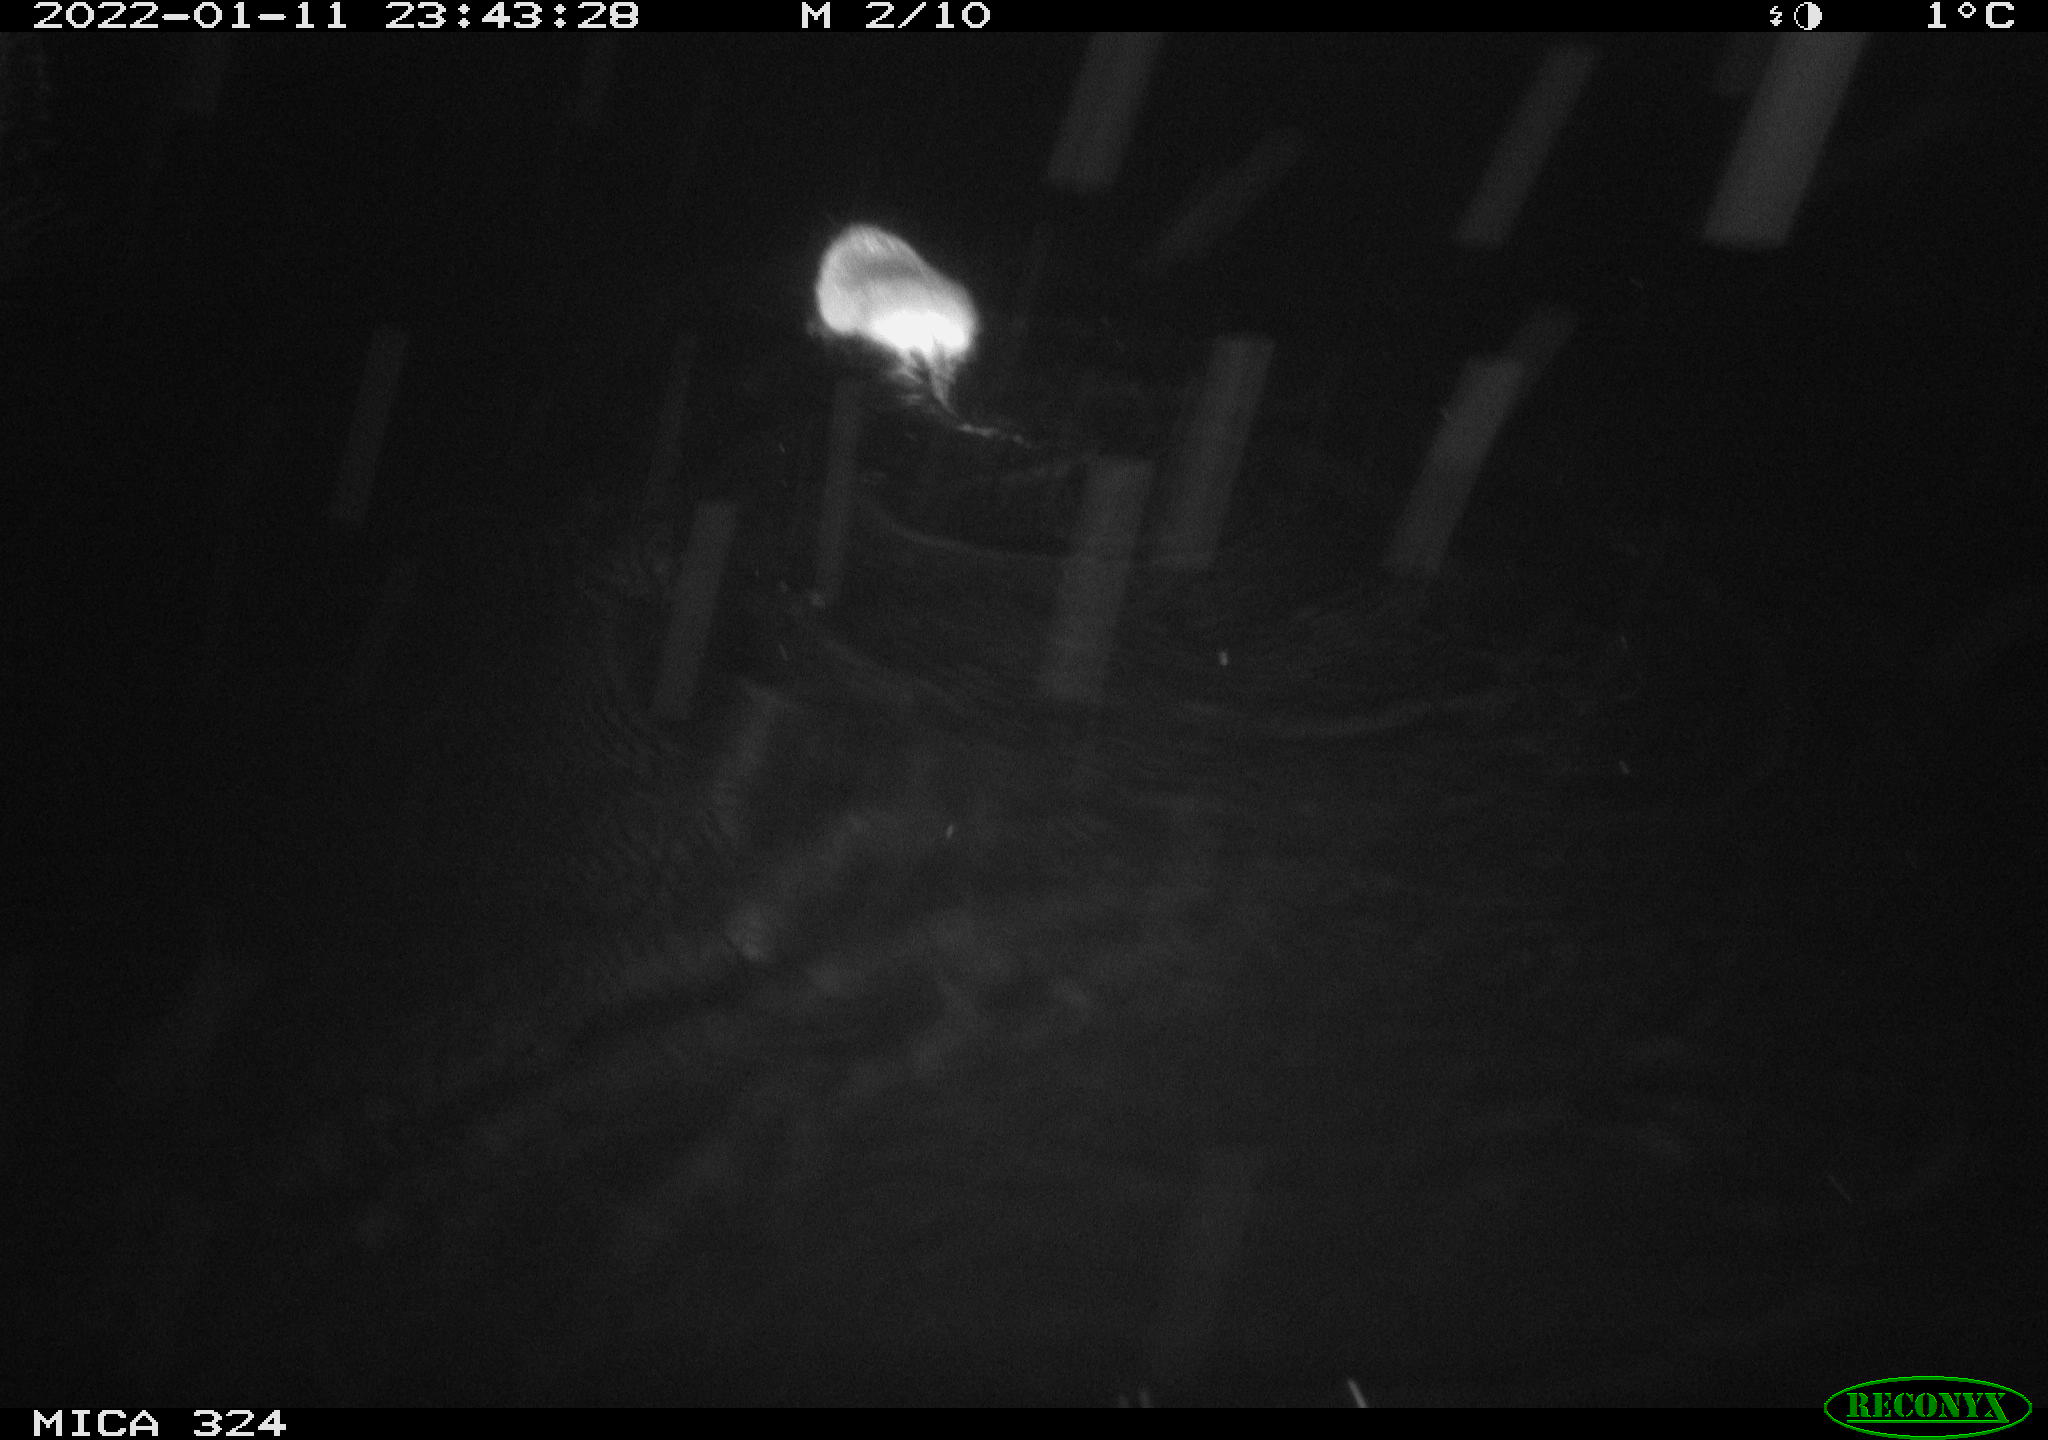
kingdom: Animalia
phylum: Chordata
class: Mammalia
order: Rodentia
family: Cricetidae
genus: Ondatra
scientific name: Ondatra zibethicus
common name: Muskrat
